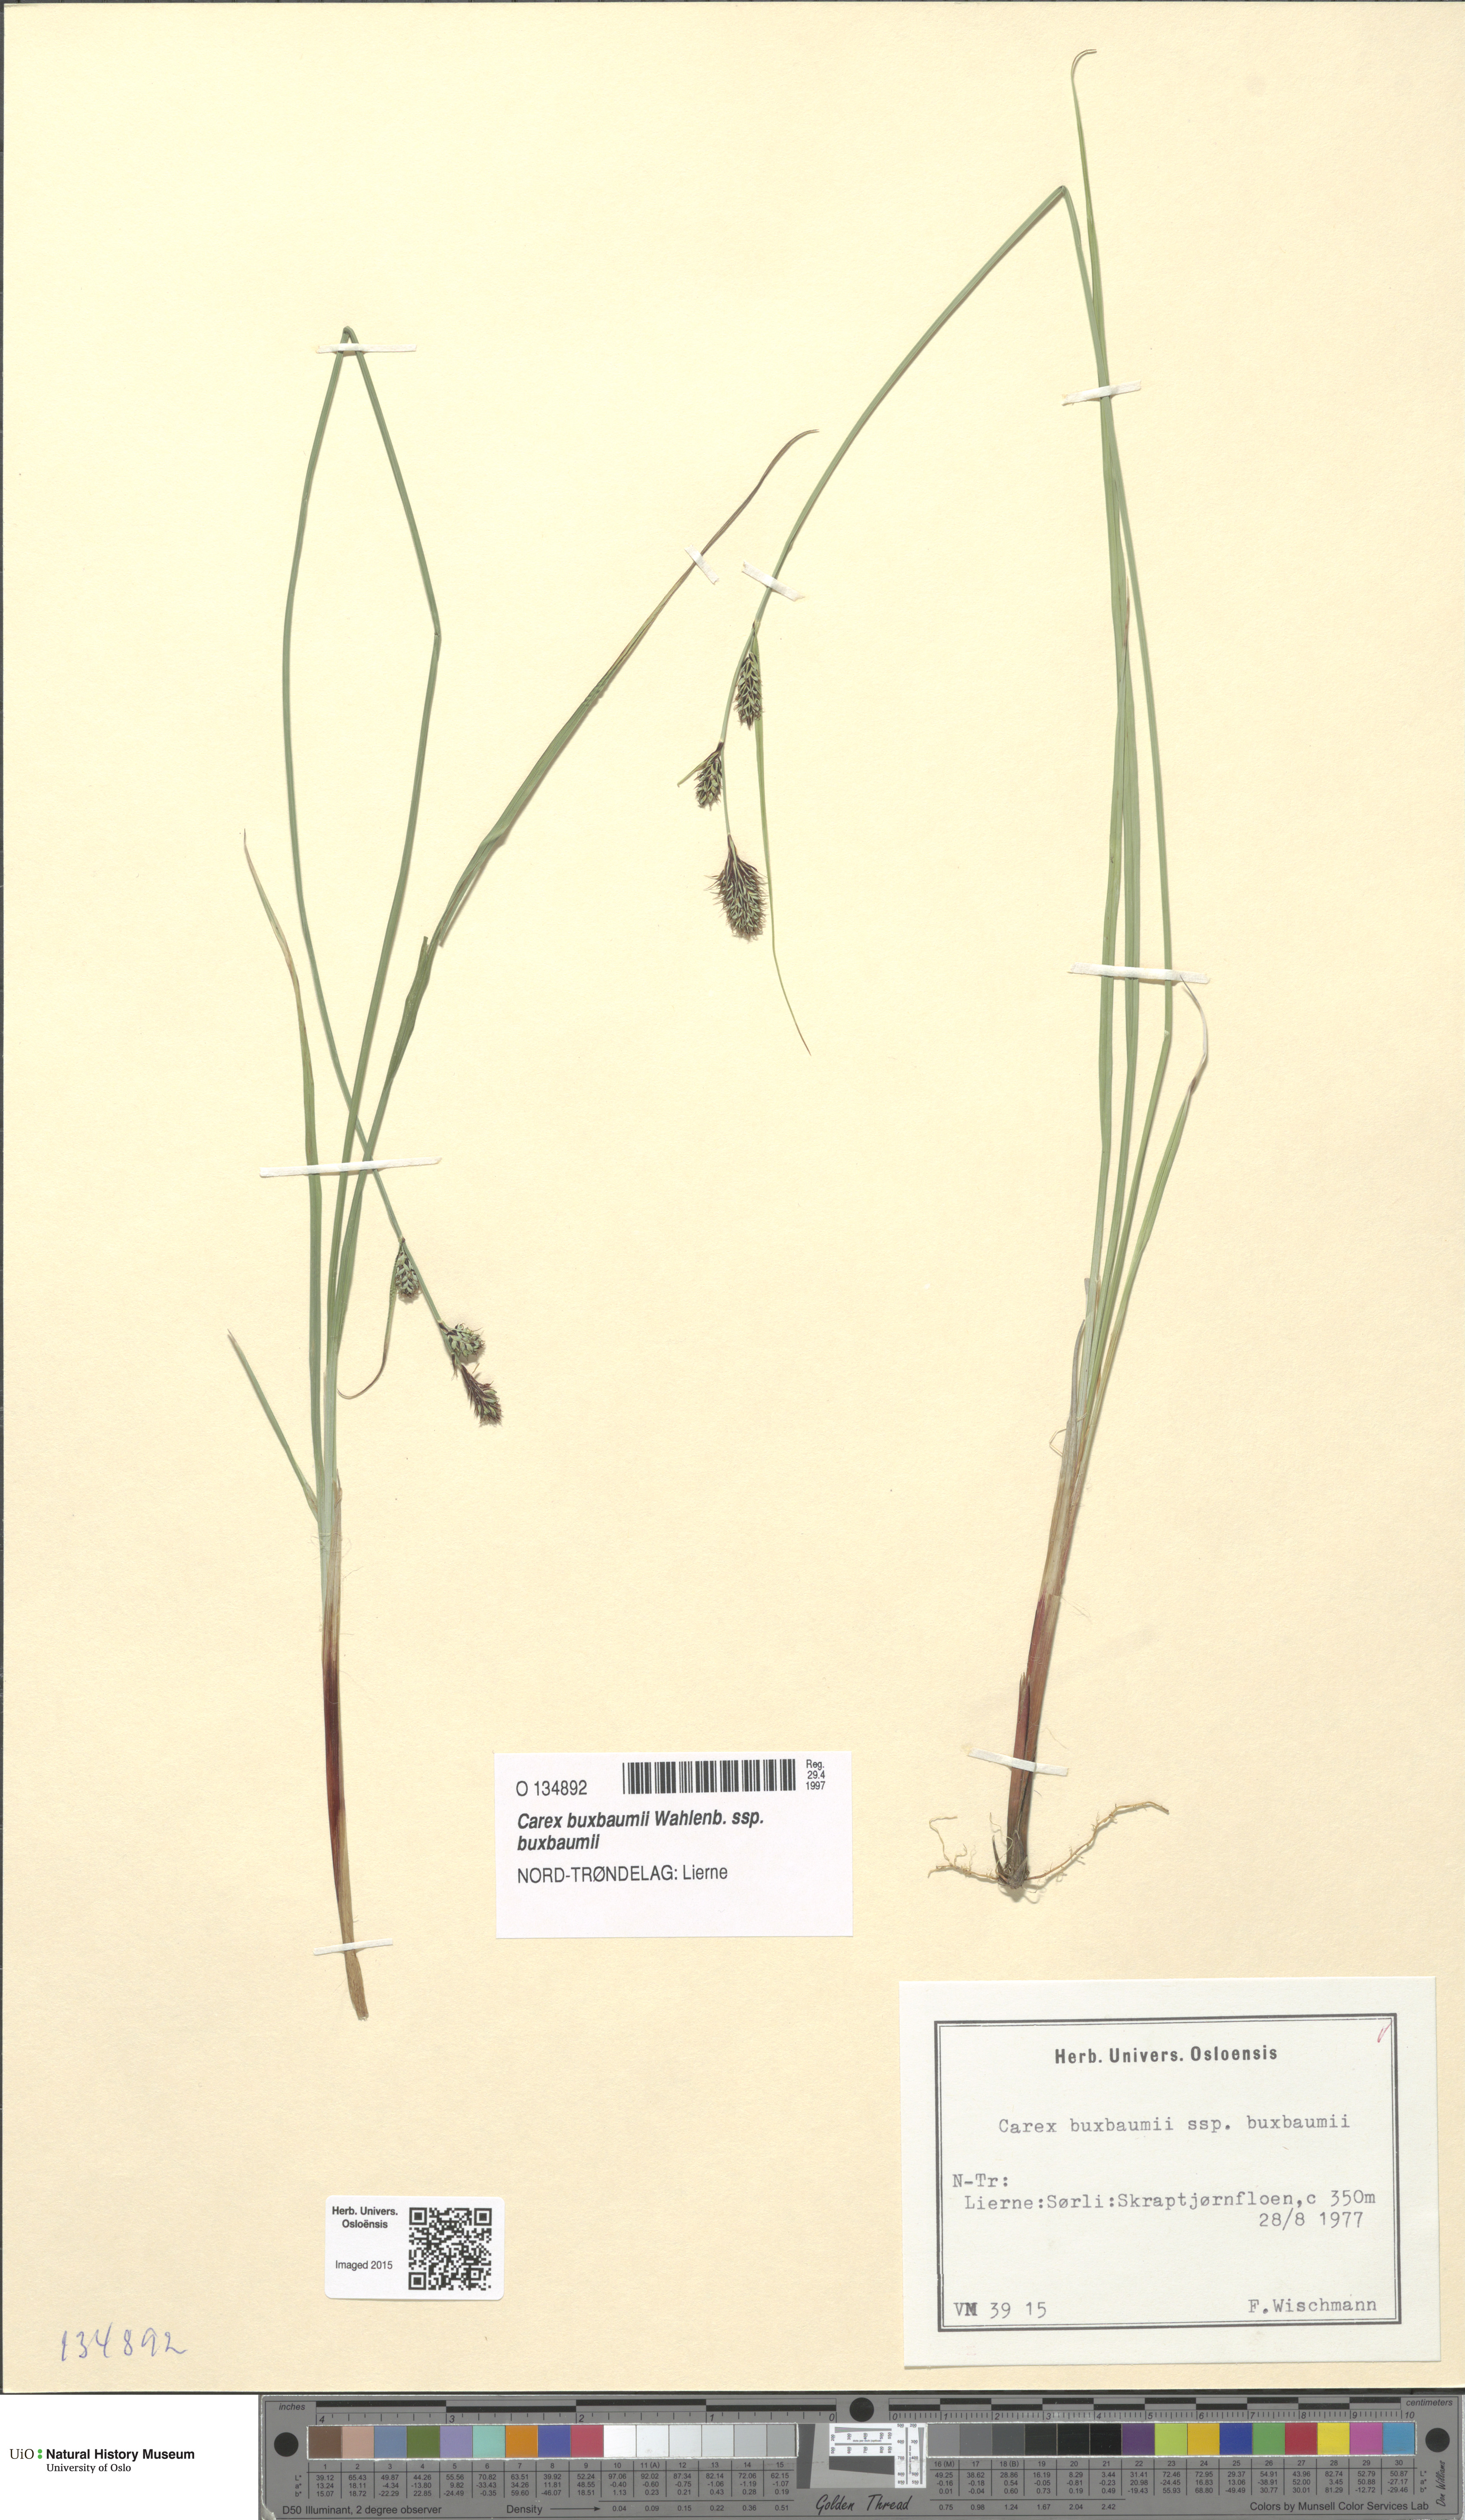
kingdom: Plantae
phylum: Tracheophyta
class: Liliopsida
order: Poales
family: Cyperaceae
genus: Carex
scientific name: Carex buxbaumii
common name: Club sedge
